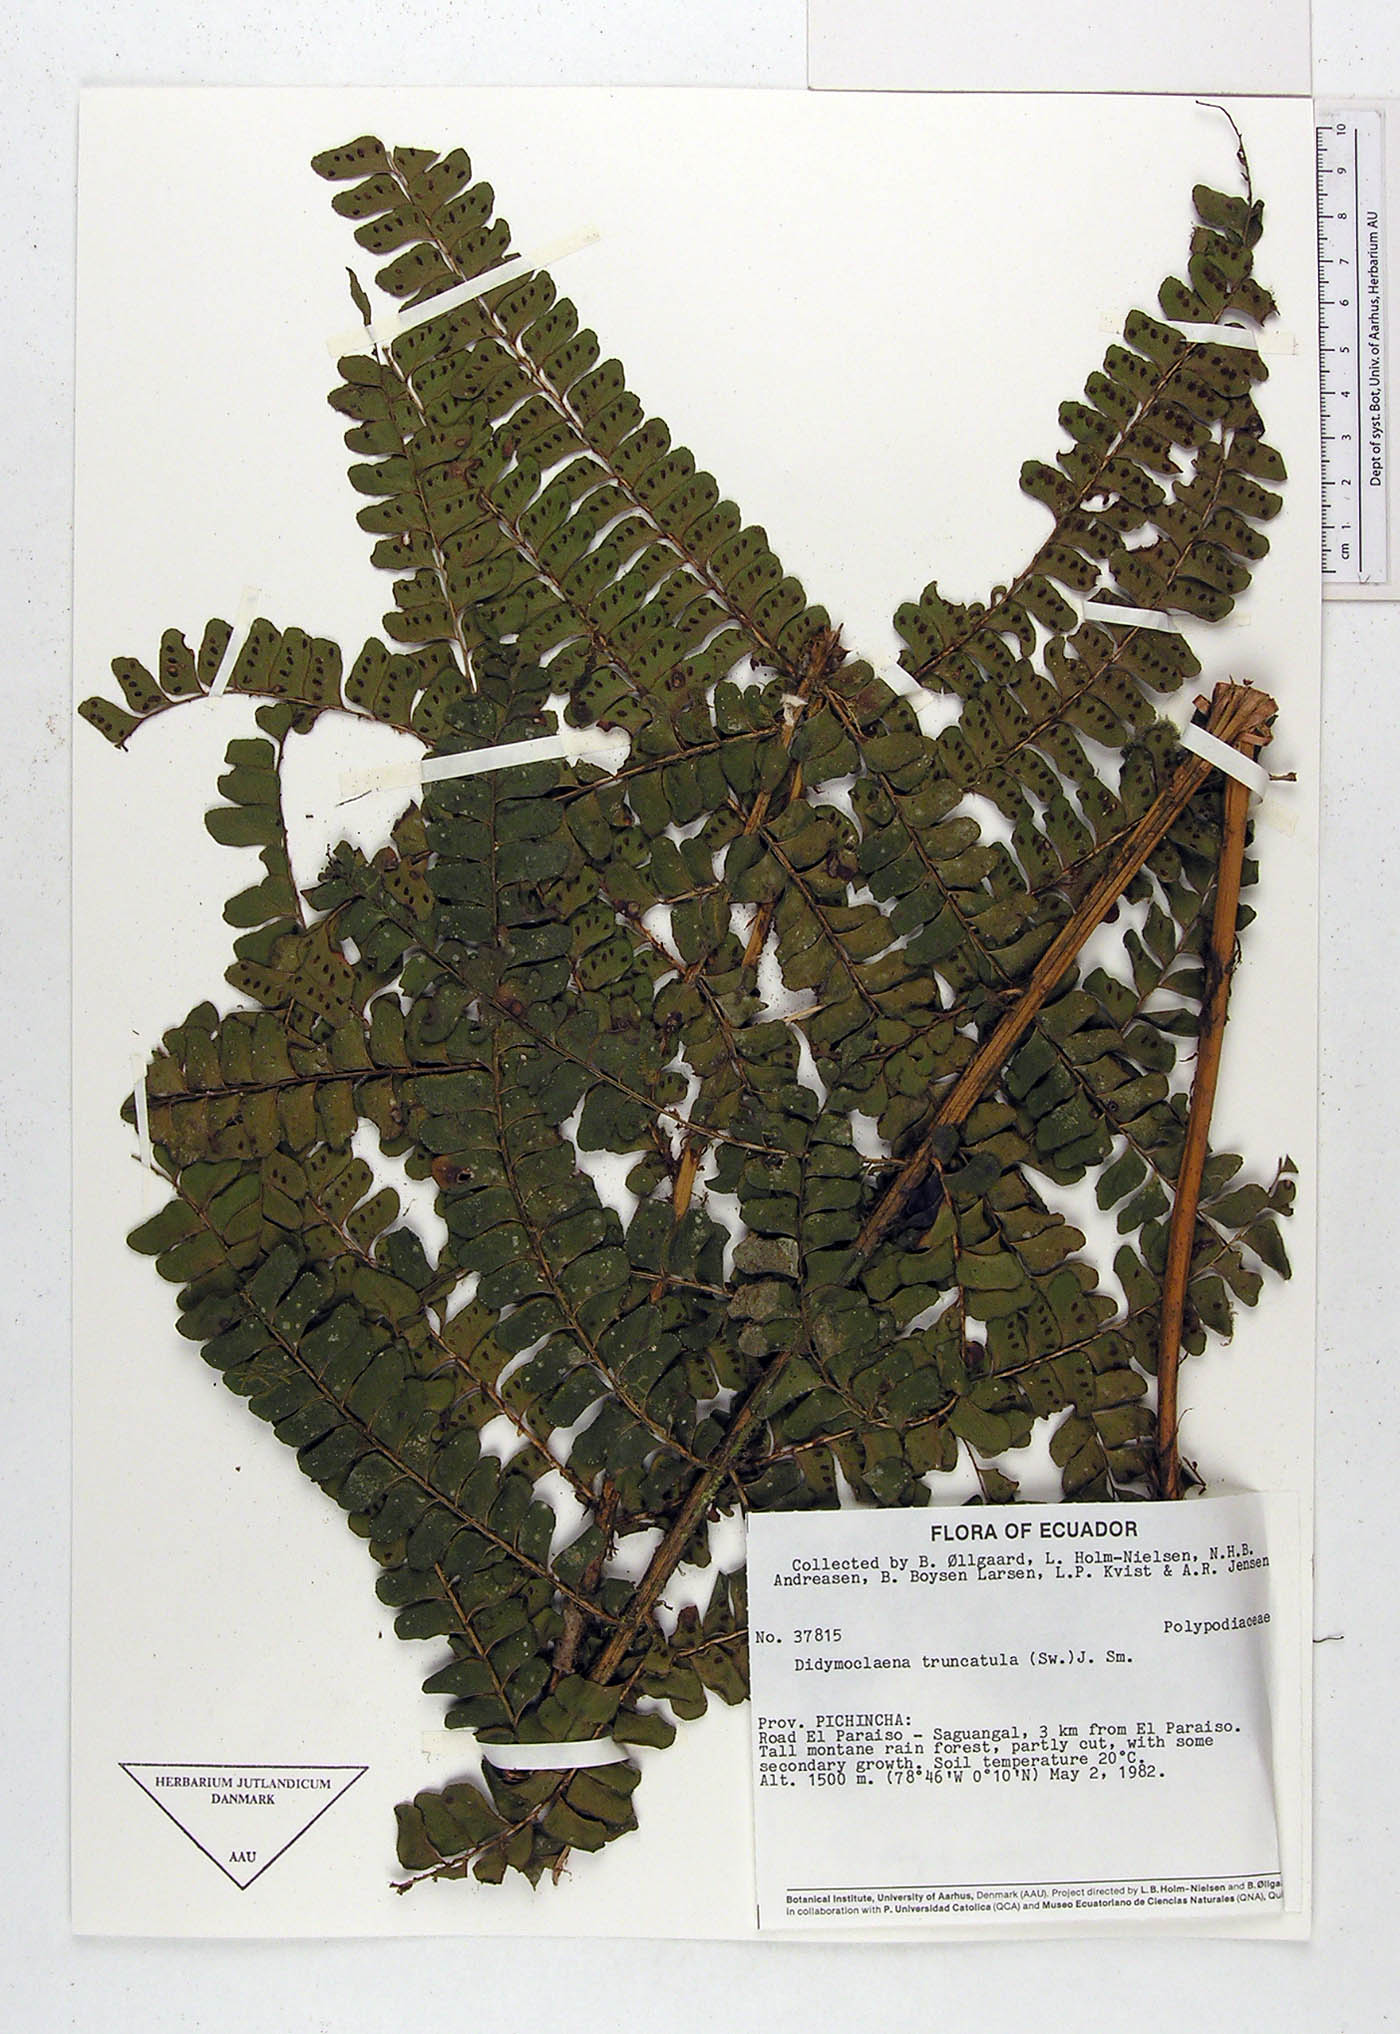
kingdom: Plantae
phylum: Tracheophyta
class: Polypodiopsida
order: Polypodiales
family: Didymochlaenaceae
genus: Didymochlaena
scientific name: Didymochlaena truncatula
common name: Mahogany fern
